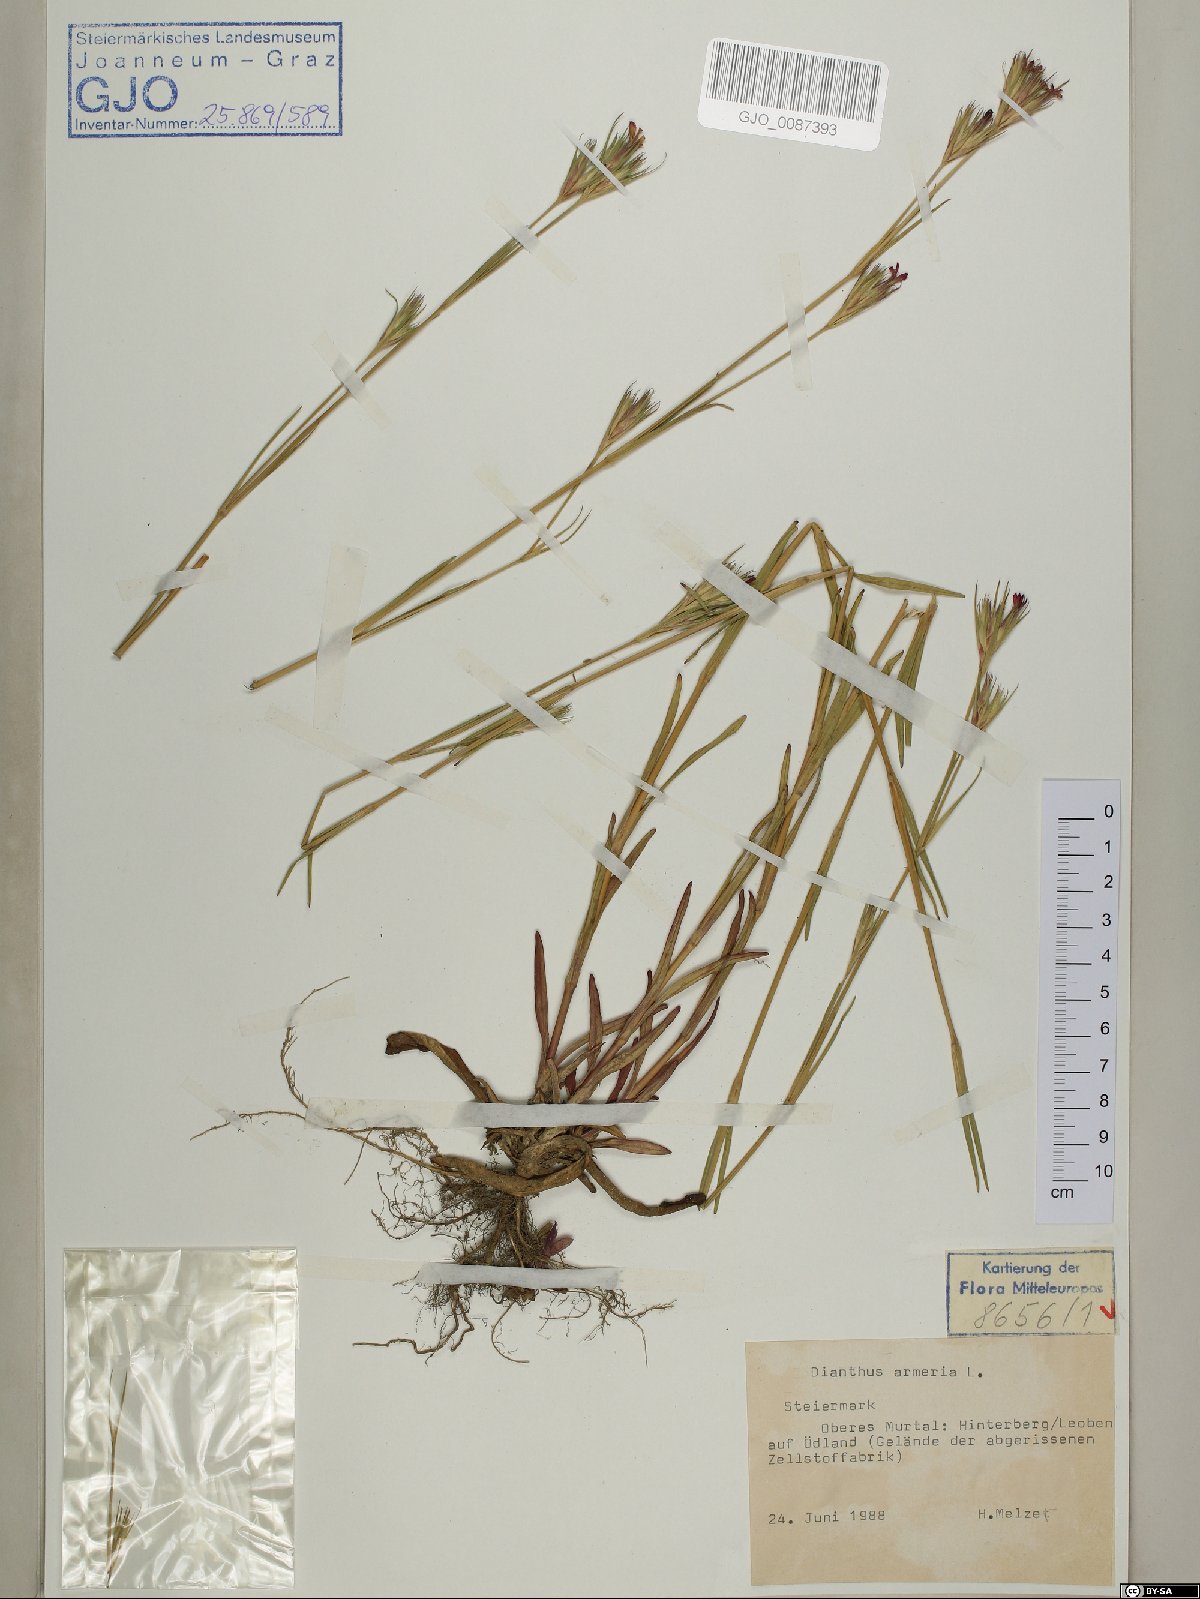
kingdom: Plantae
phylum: Tracheophyta
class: Magnoliopsida
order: Caryophyllales
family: Caryophyllaceae
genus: Dianthus
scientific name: Dianthus armeria
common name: Deptford pink
